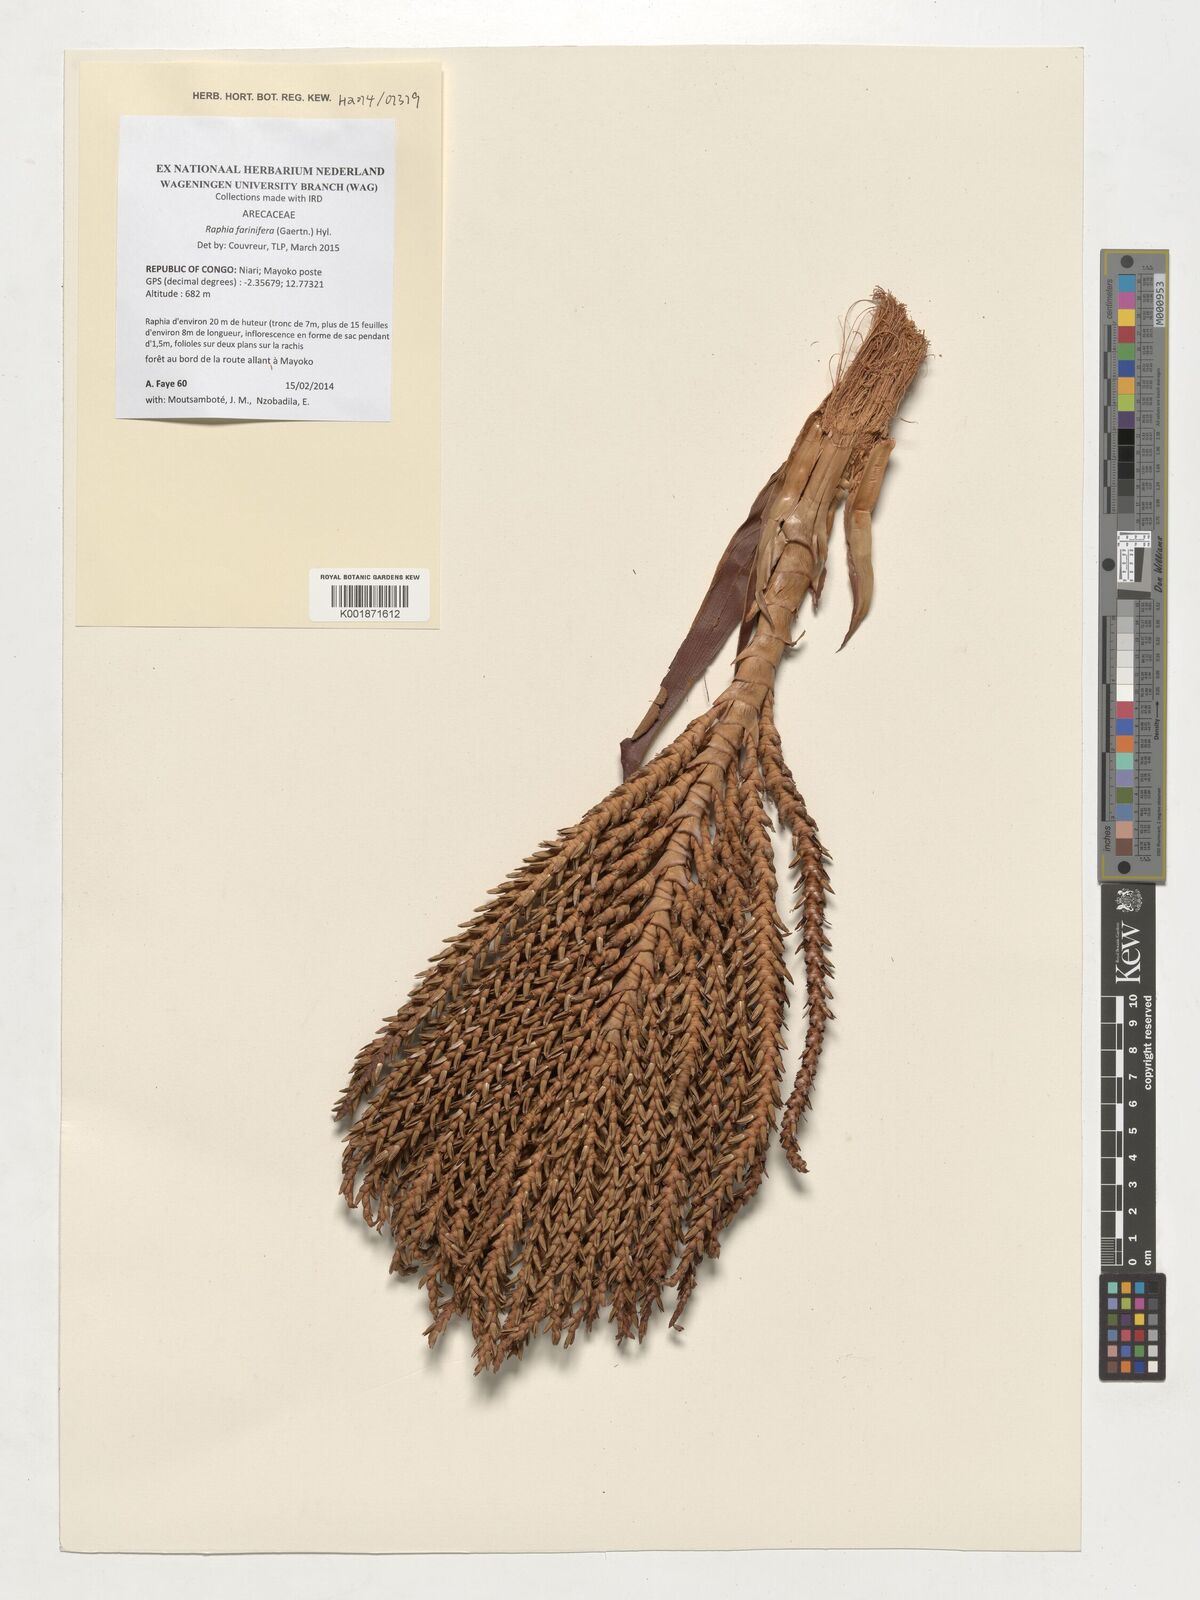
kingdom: Plantae
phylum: Tracheophyta
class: Liliopsida
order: Arecales
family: Arecaceae
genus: Raphia
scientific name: Raphia farinifera
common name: Raphia palm
